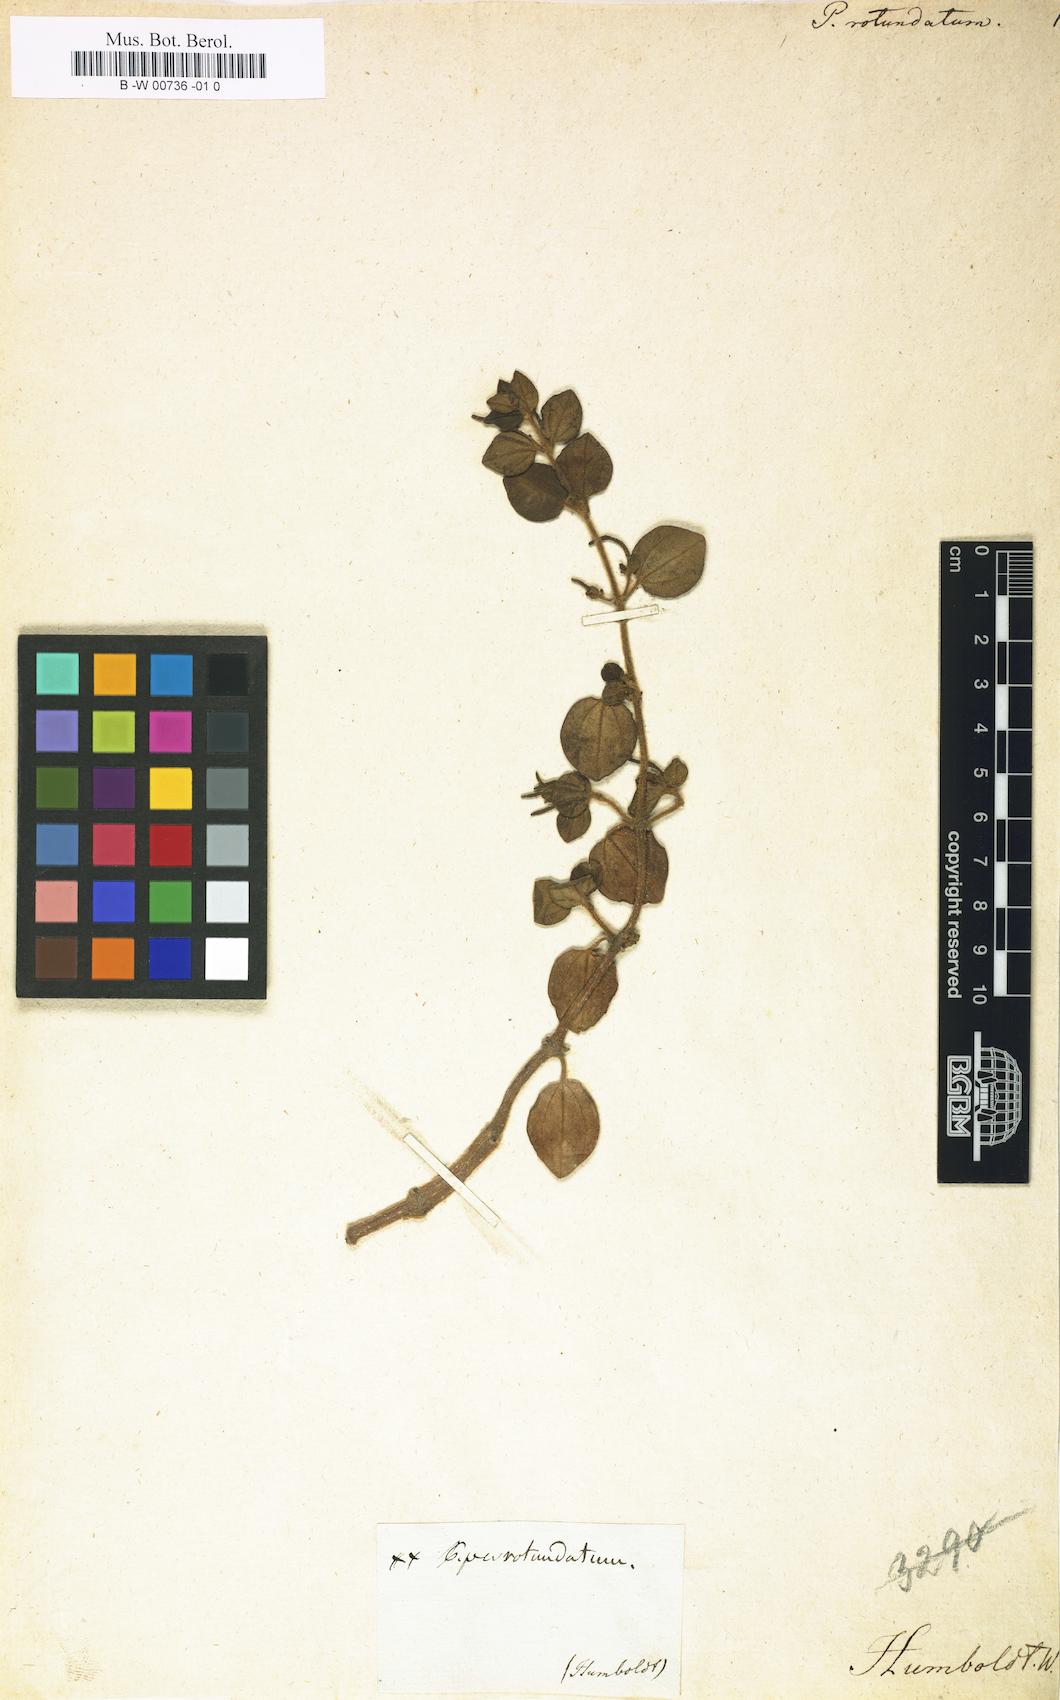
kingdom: Plantae
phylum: Tracheophyta
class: Magnoliopsida
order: Piperales
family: Piperaceae
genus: Peperomia
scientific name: Peperomia rotundata
